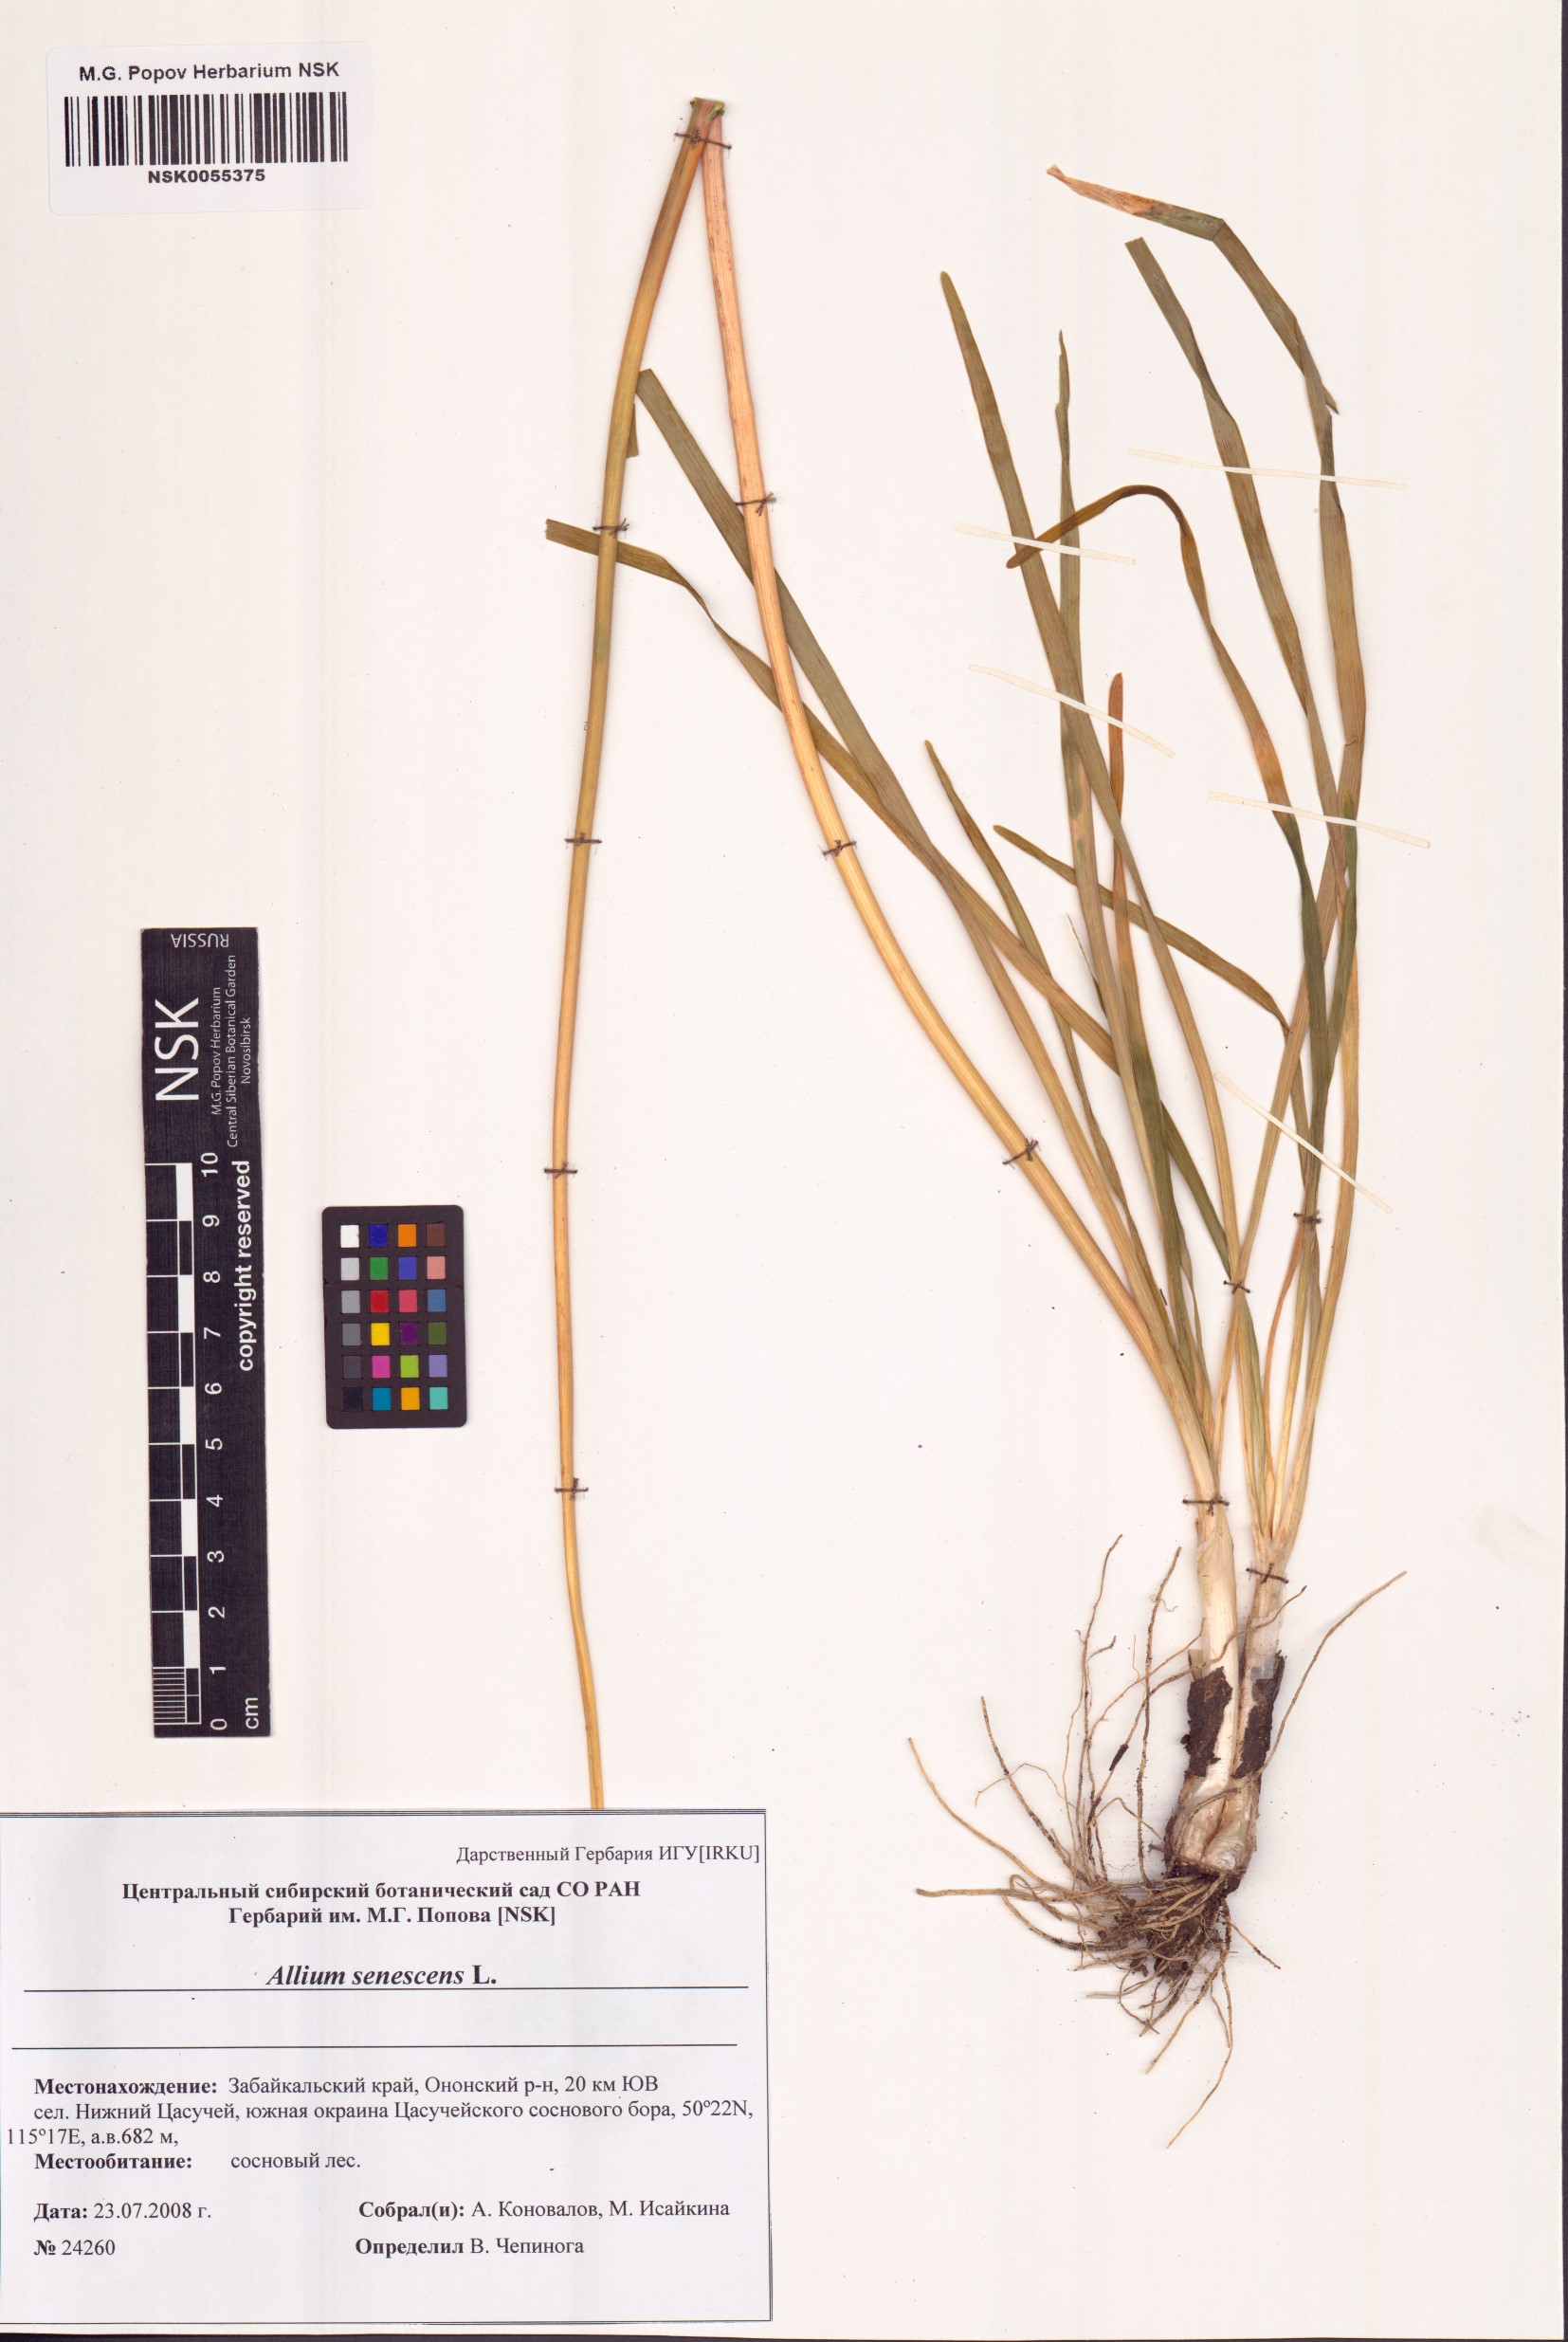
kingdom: Plantae
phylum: Tracheophyta
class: Liliopsida
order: Asparagales
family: Amaryllidaceae
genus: Allium
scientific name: Allium senescens
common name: German garlic
